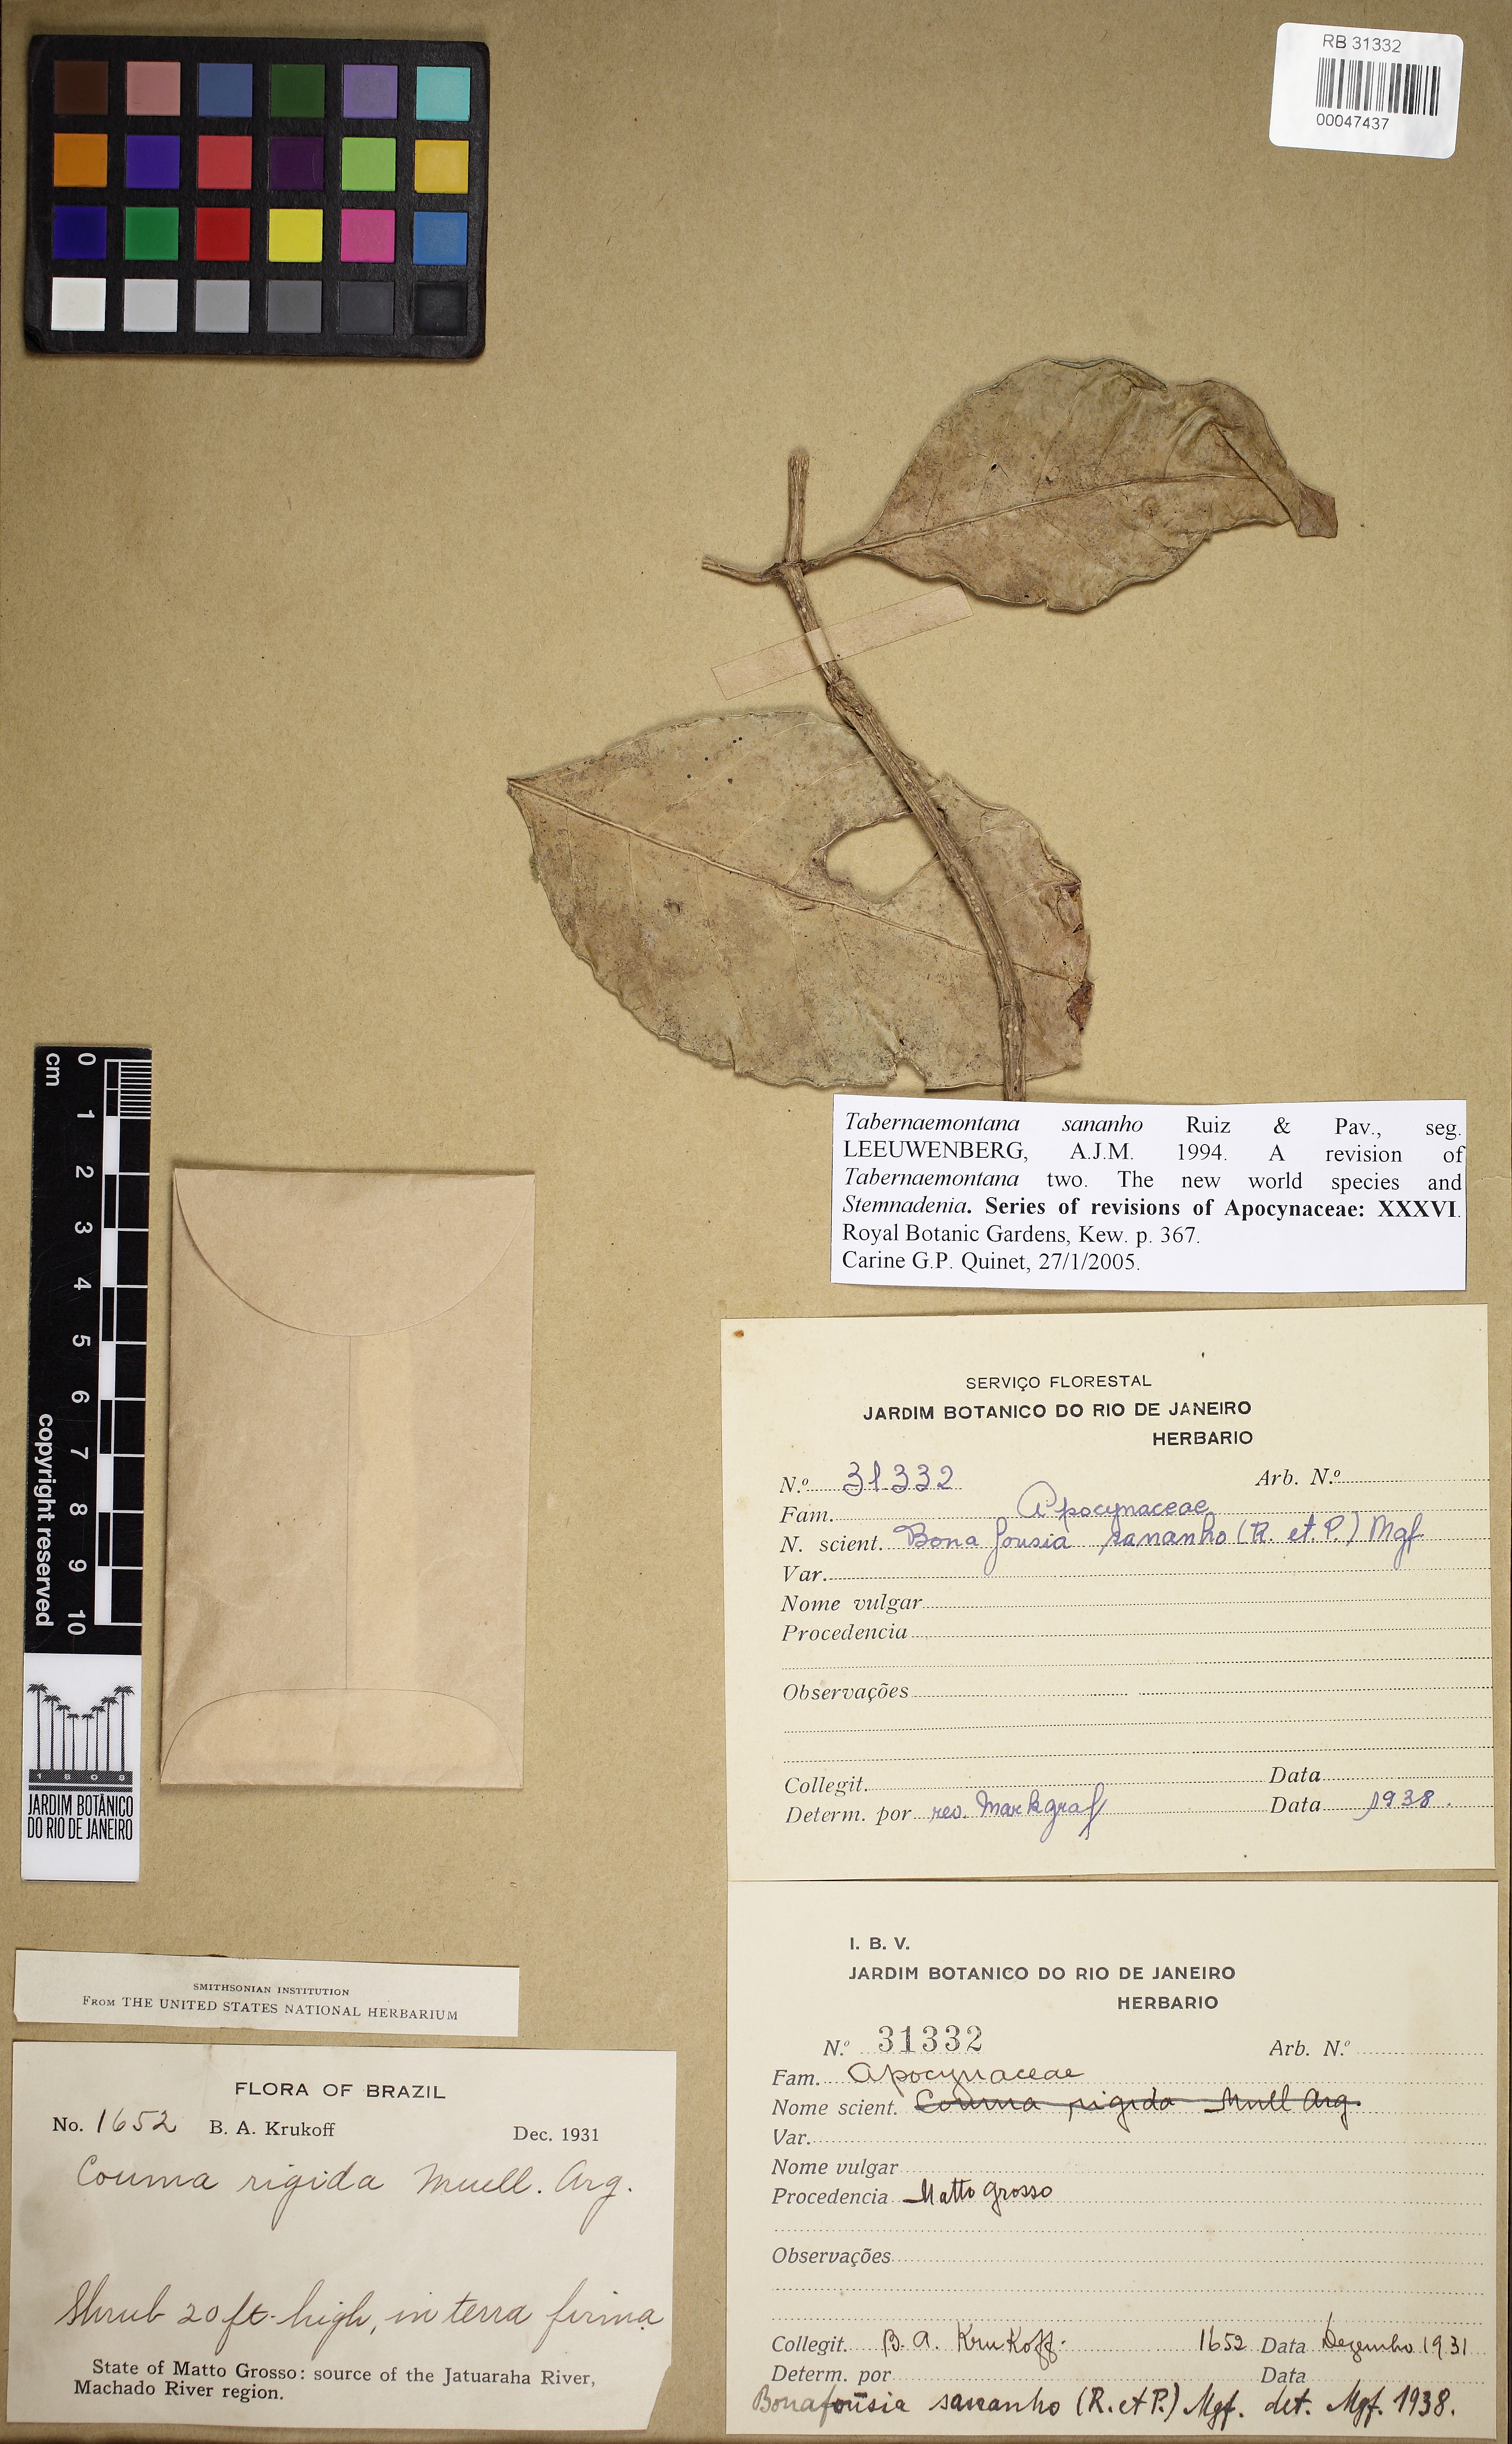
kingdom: Plantae
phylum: Tracheophyta
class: Magnoliopsida
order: Gentianales
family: Apocynaceae
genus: Tabernaemontana
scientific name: Tabernaemontana sananho
